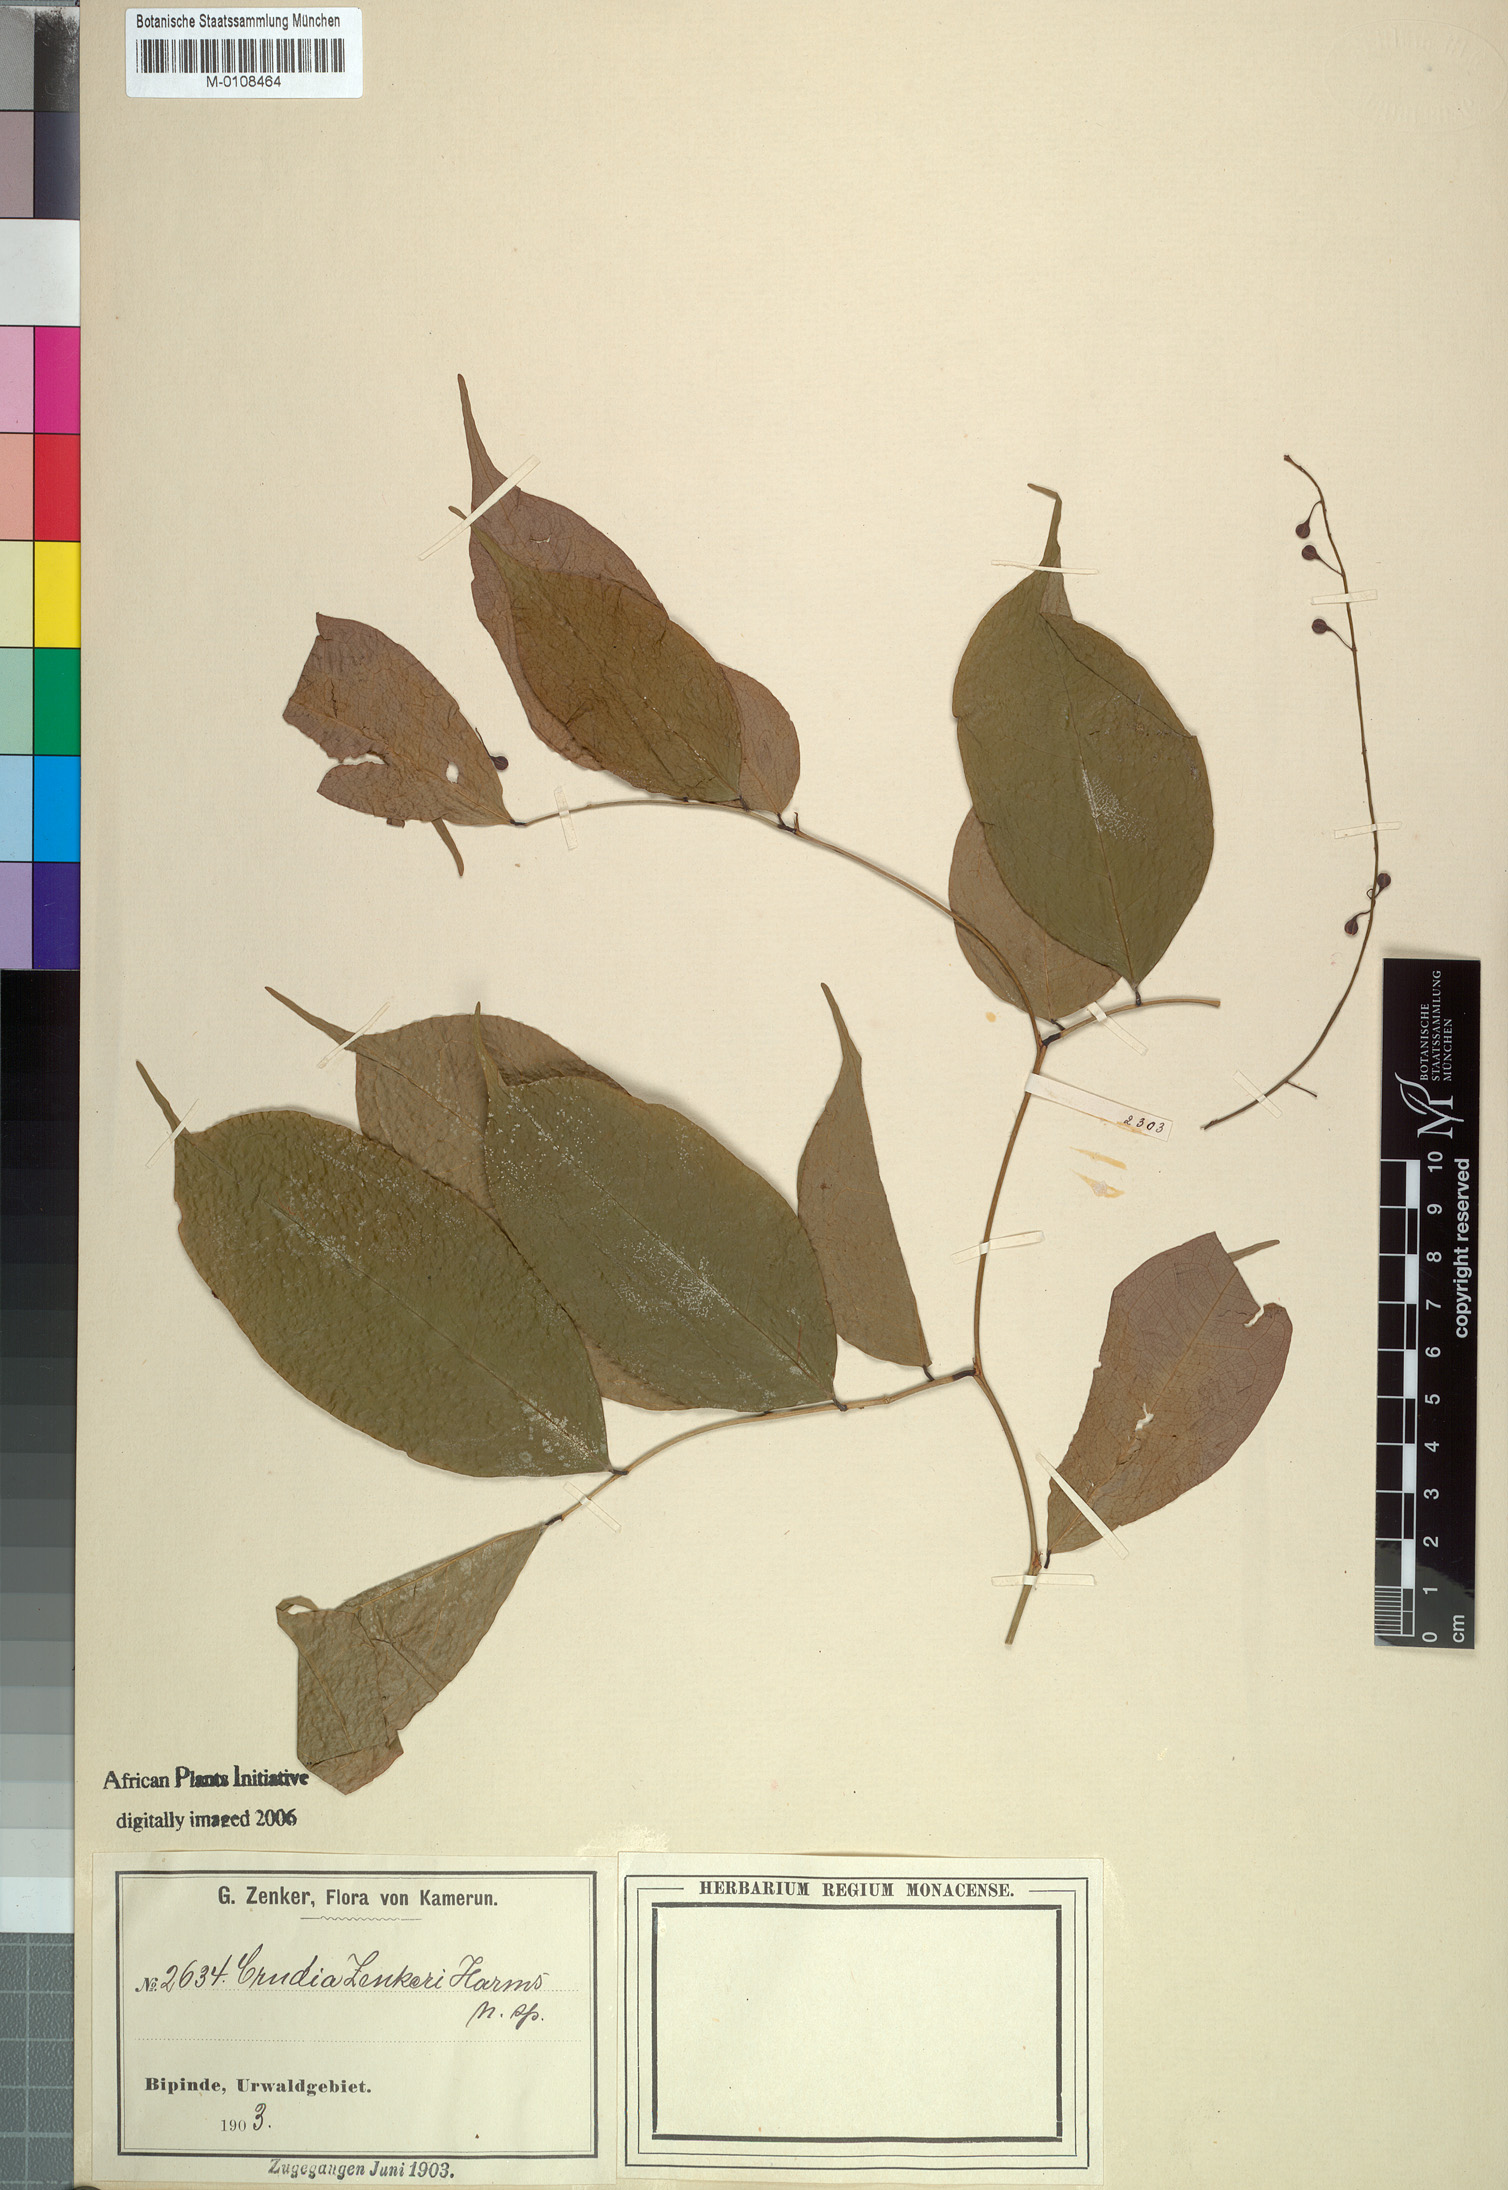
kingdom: Plantae
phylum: Tracheophyta
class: Magnoliopsida
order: Fabales
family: Fabaceae
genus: Crudia
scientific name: Crudia zenkeri
